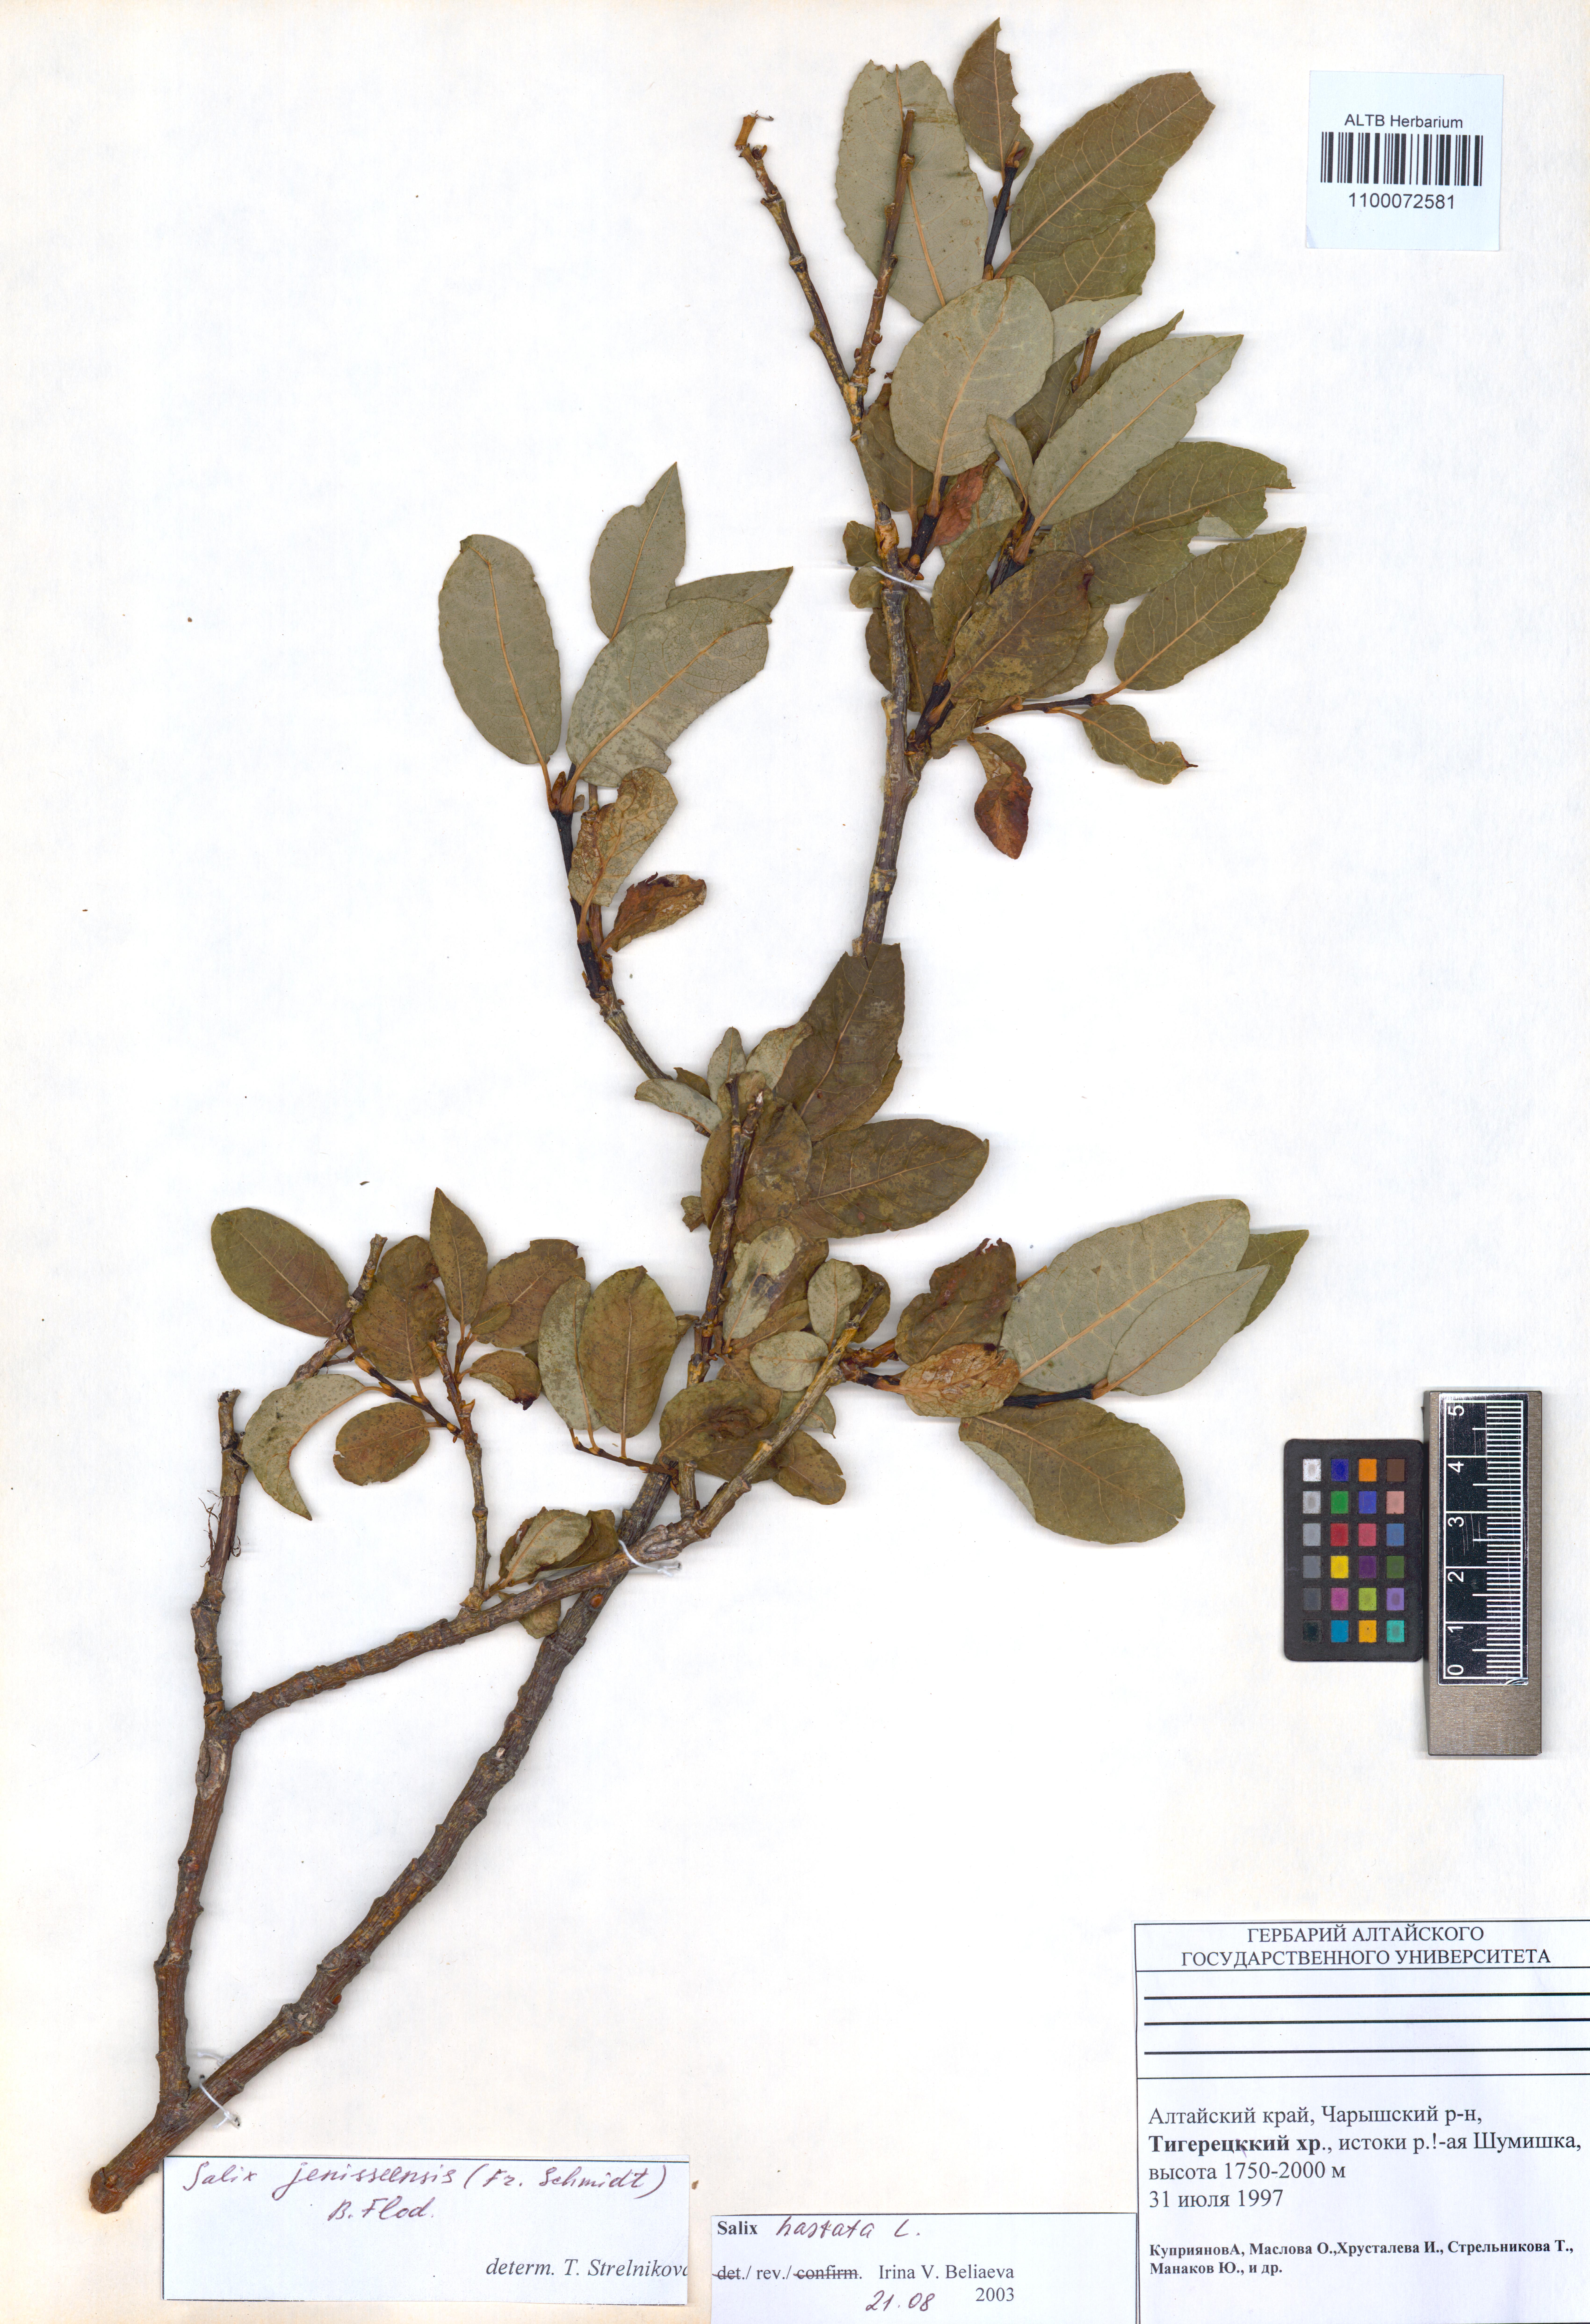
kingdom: Plantae
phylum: Tracheophyta
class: Magnoliopsida
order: Malpighiales
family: Salicaceae
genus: Salix
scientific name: Salix hastata
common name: Halberd willow
